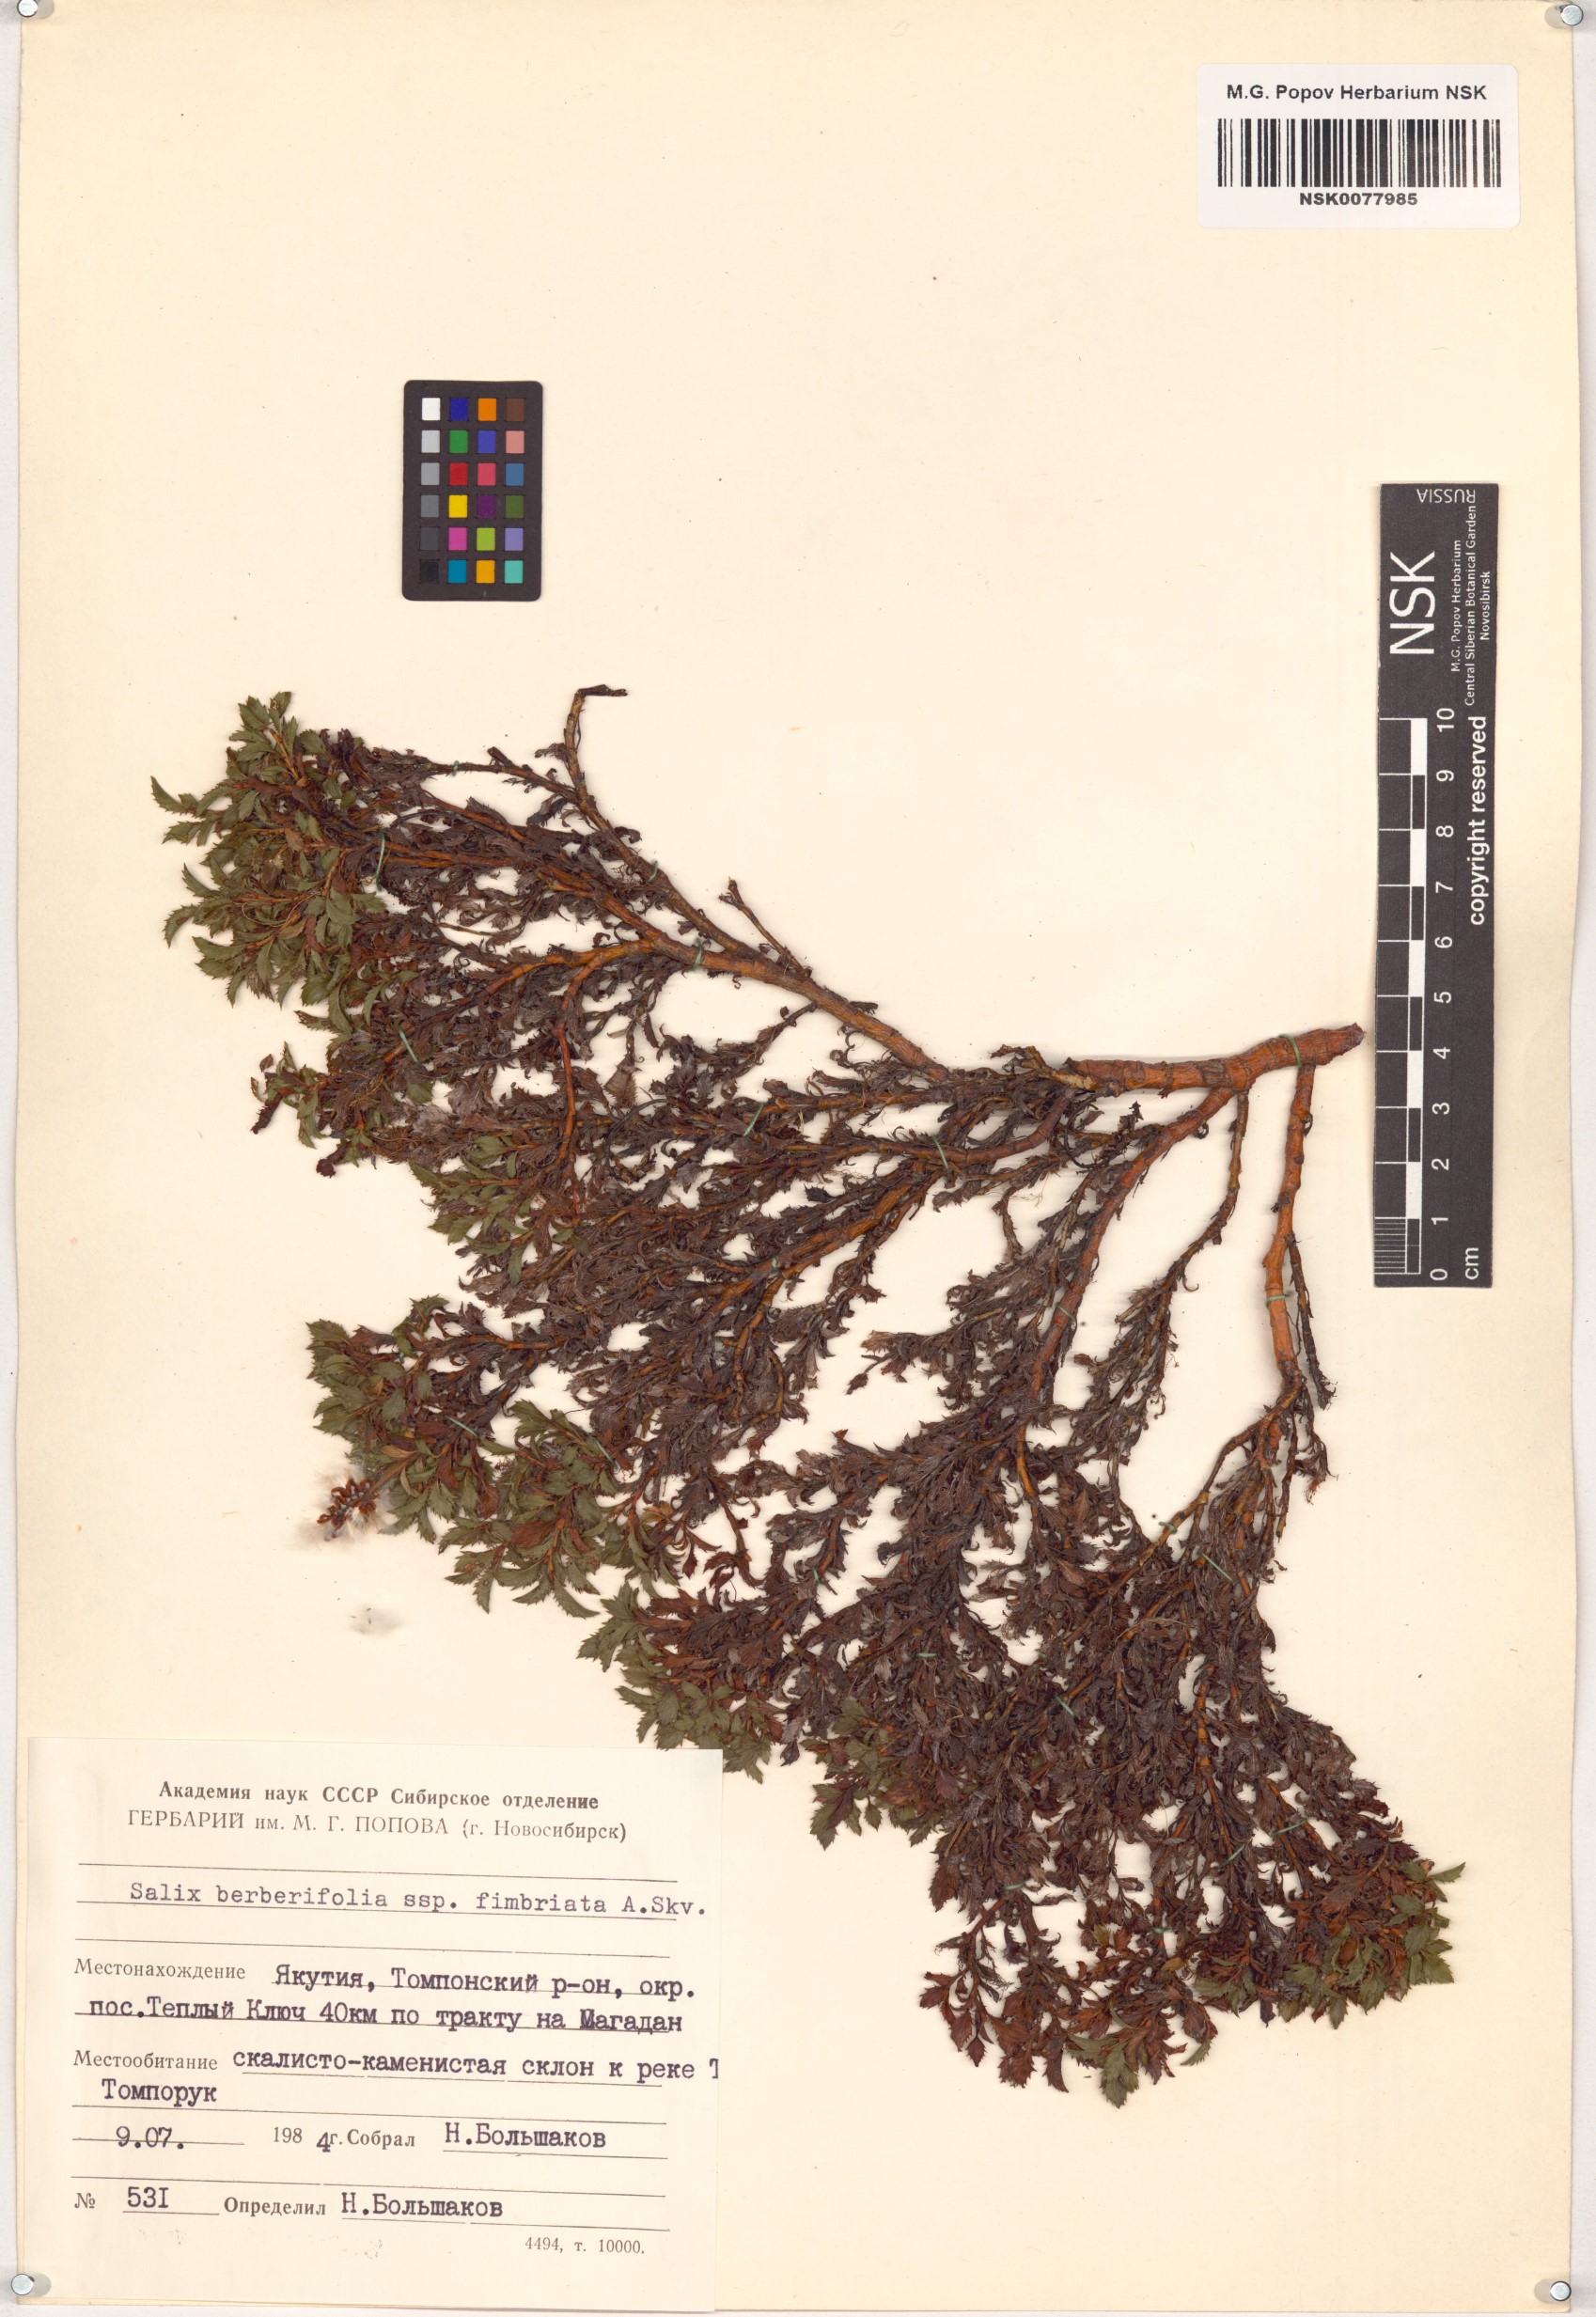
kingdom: Plantae
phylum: Tracheophyta
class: Magnoliopsida
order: Malpighiales
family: Salicaceae
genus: Salix
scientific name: Salix berberifolia
